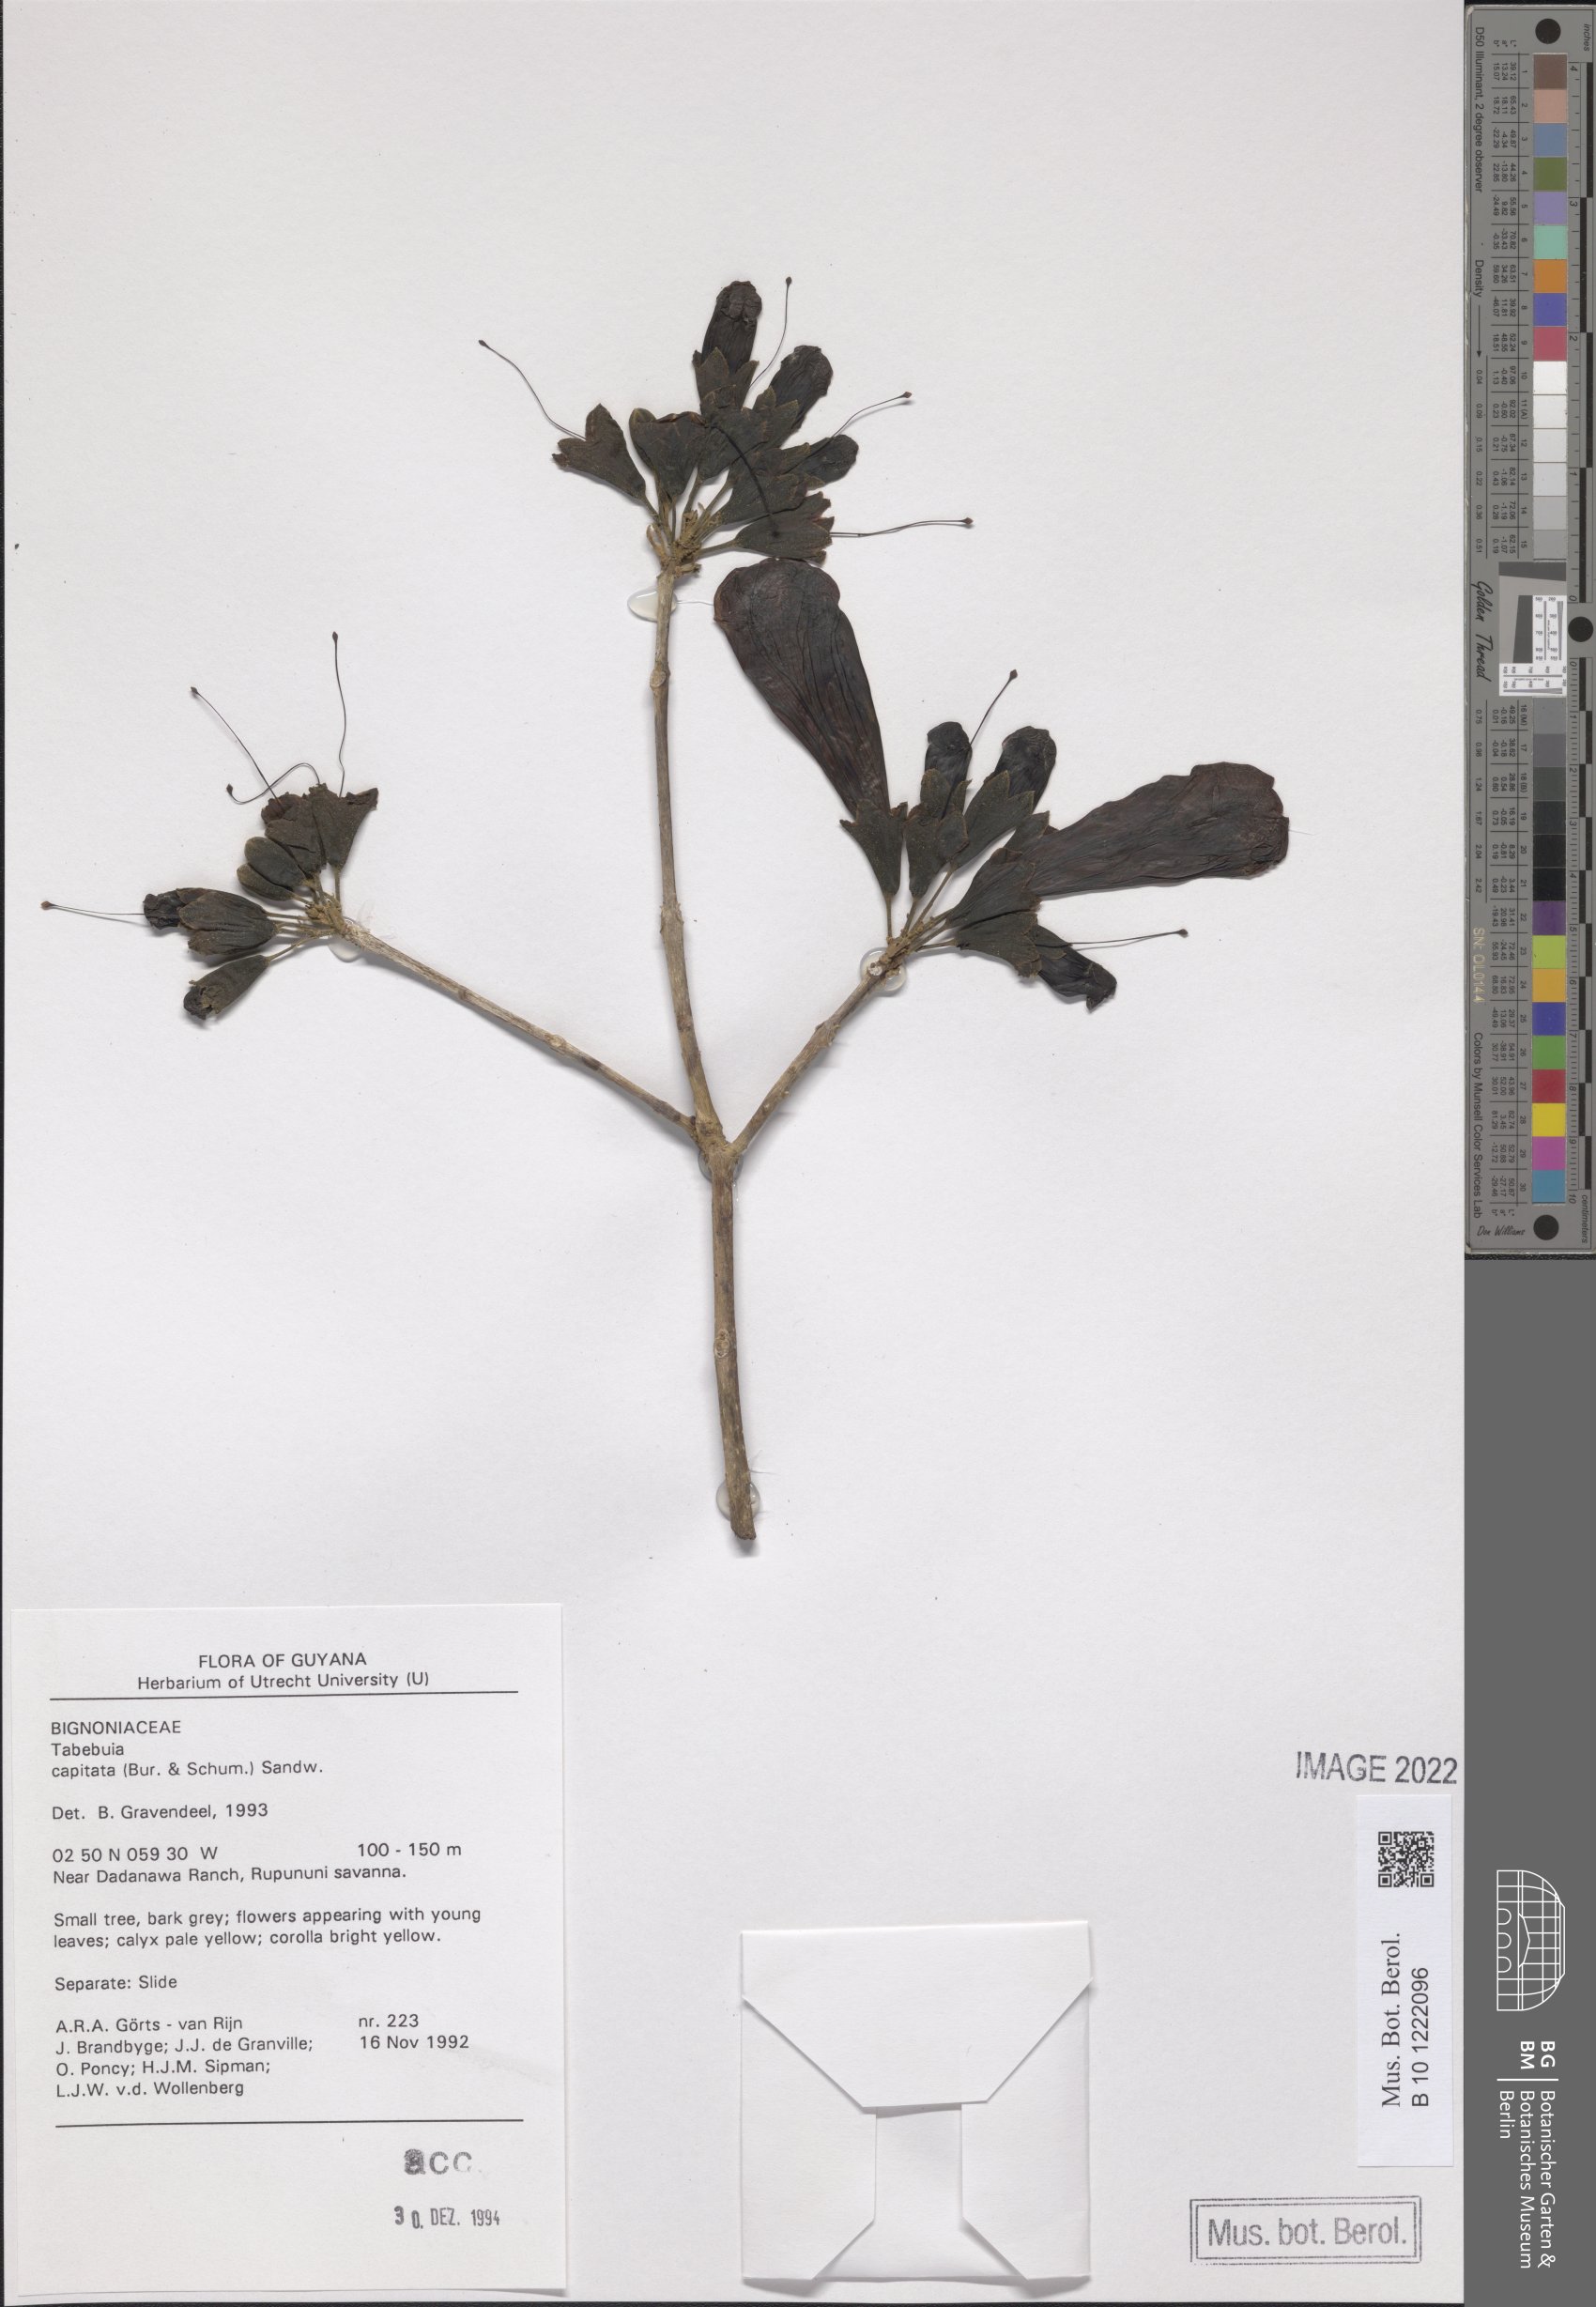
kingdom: Plantae
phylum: Tracheophyta
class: Magnoliopsida
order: Lamiales
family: Bignoniaceae
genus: Handroanthus
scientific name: Handroanthus capitatus
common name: Trumpet trees
